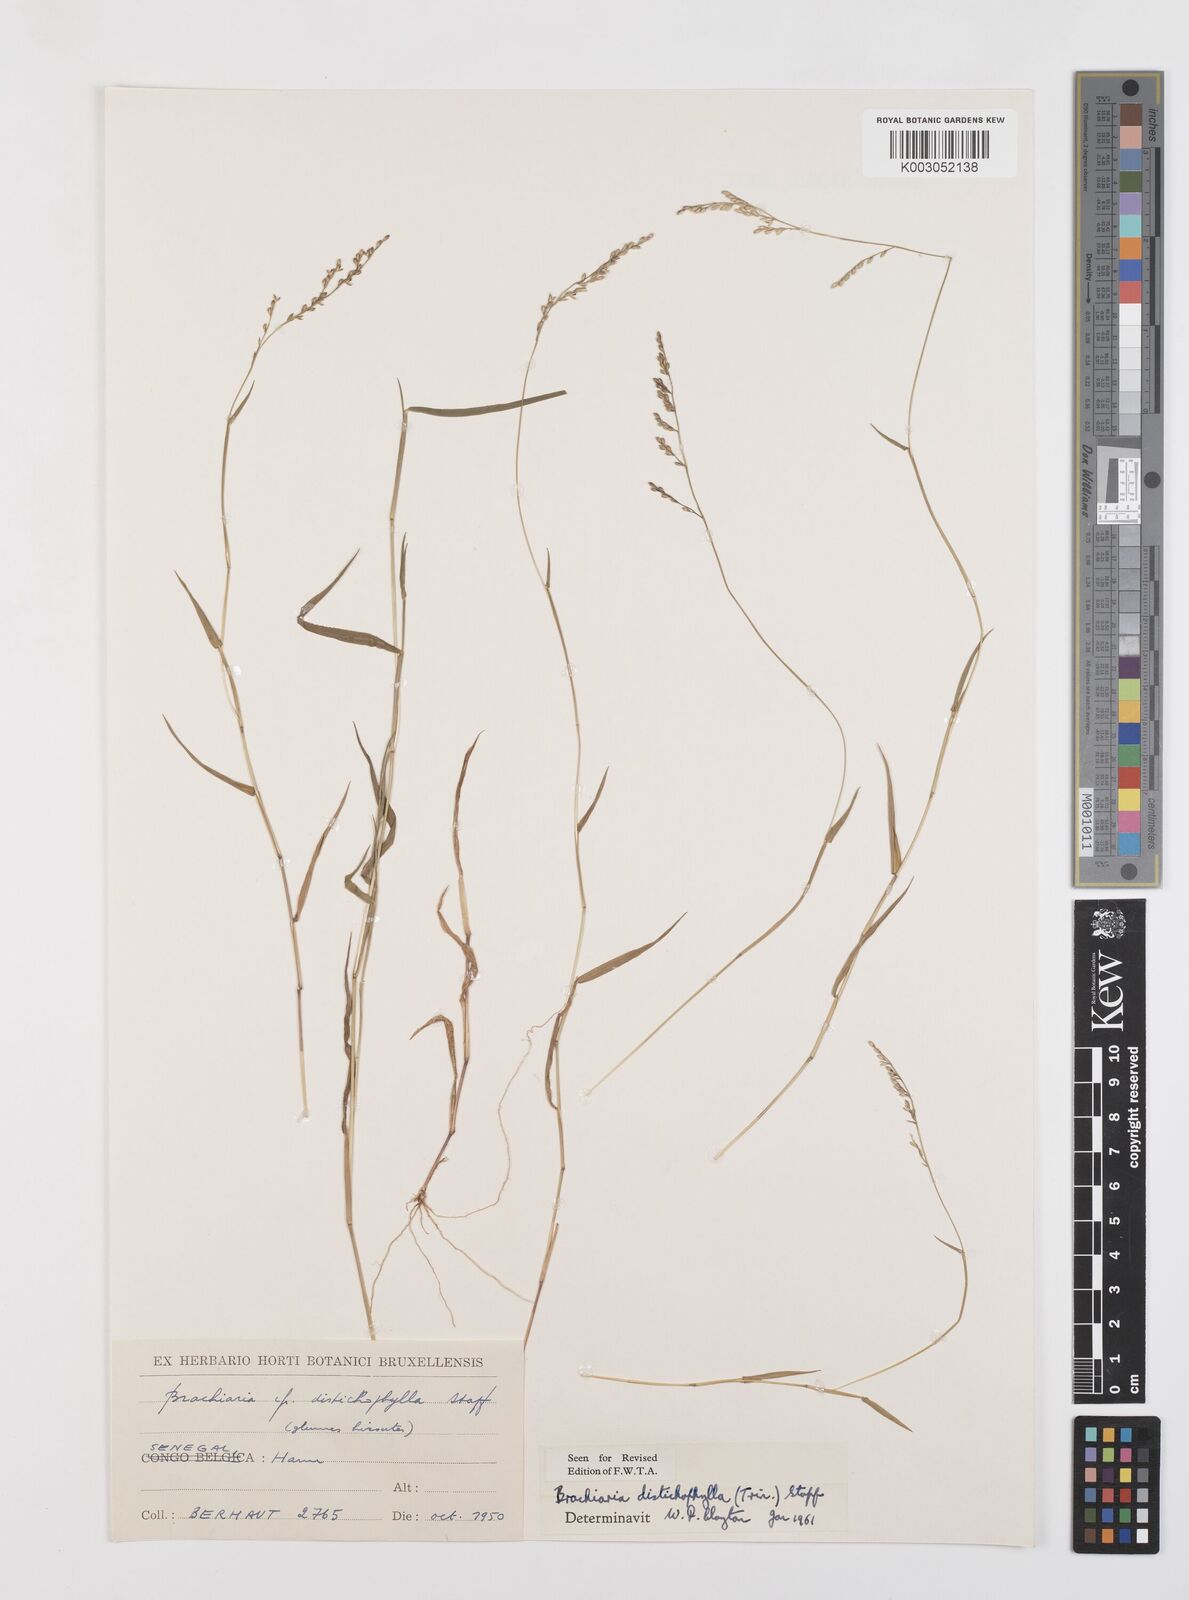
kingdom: Plantae
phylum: Tracheophyta
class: Liliopsida
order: Poales
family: Poaceae
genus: Urochloa
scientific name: Urochloa villosa
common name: Hairy signalgrass
